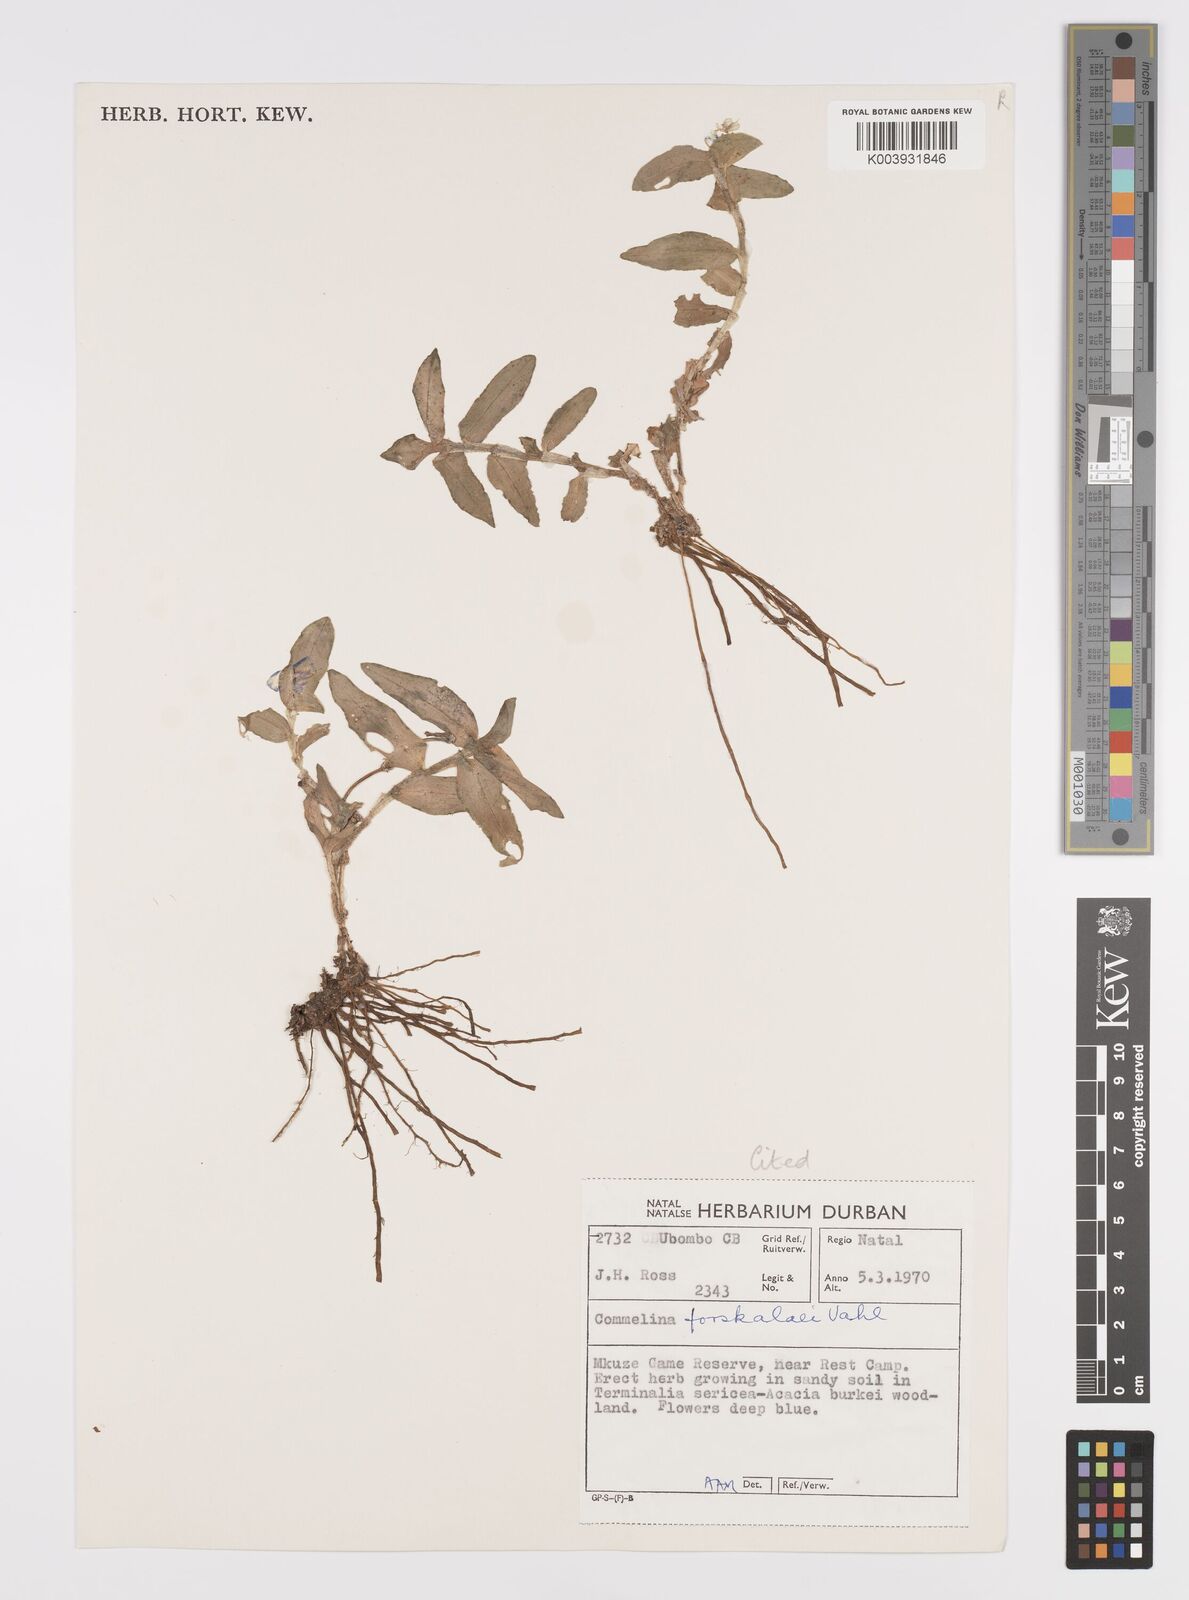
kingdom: Plantae
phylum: Tracheophyta
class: Liliopsida
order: Commelinales
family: Commelinaceae
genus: Commelina
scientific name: Commelina forskaolii
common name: Rat's ear
